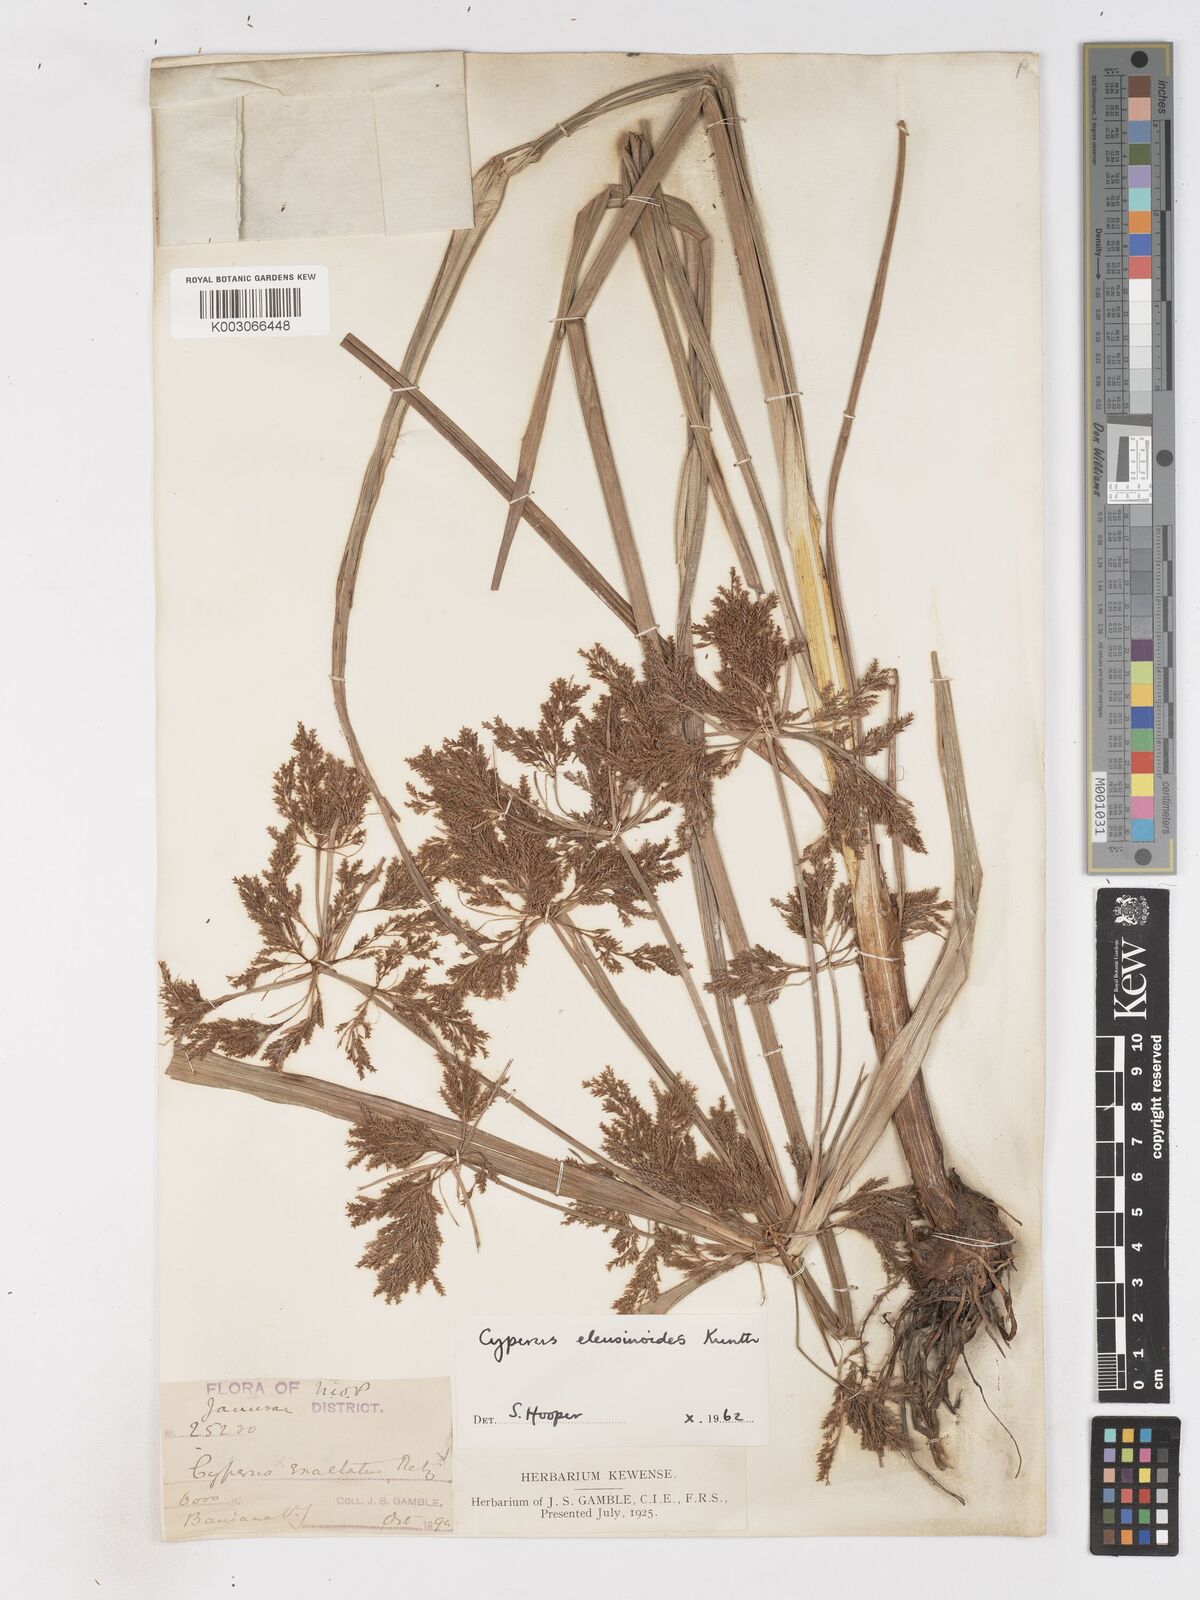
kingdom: Plantae
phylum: Tracheophyta
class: Liliopsida
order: Poales
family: Cyperaceae
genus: Cyperus
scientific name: Cyperus nutans
